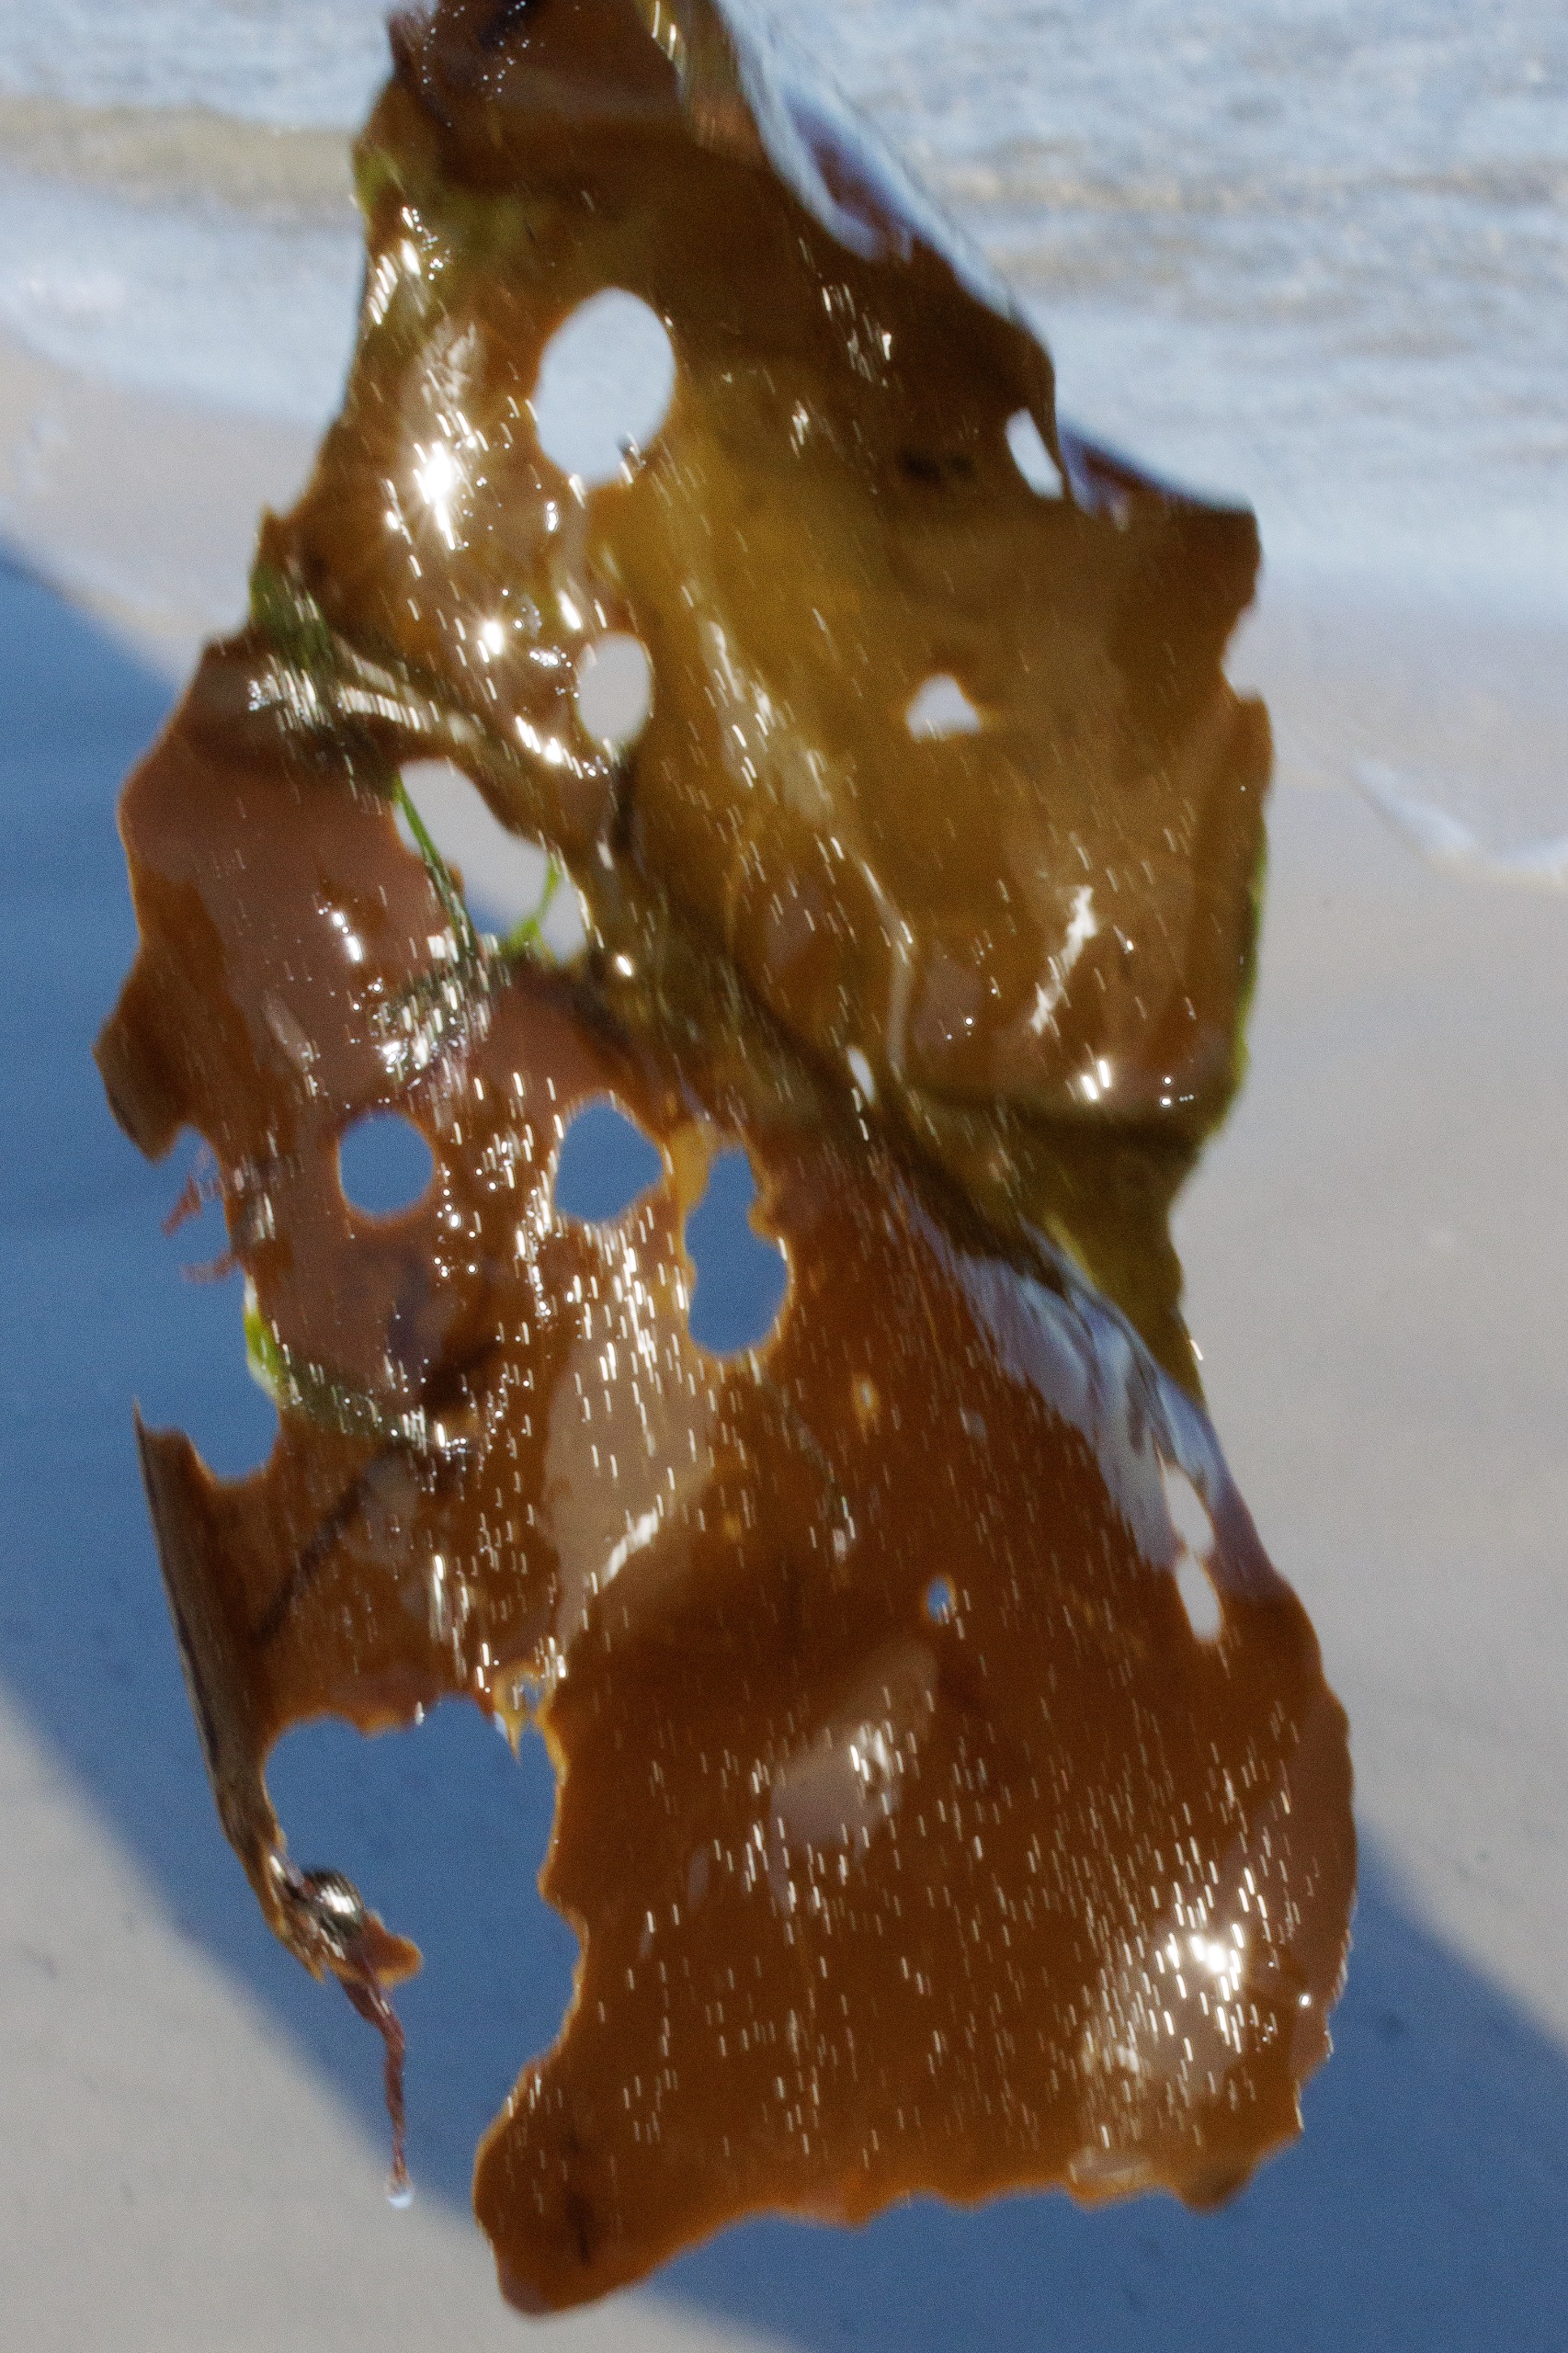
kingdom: Chromista
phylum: Ochrophyta
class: Phaeophyceae
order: Laminariales
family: Laminariaceae
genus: Laminaria
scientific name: Laminaria digitata
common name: Fingertang
